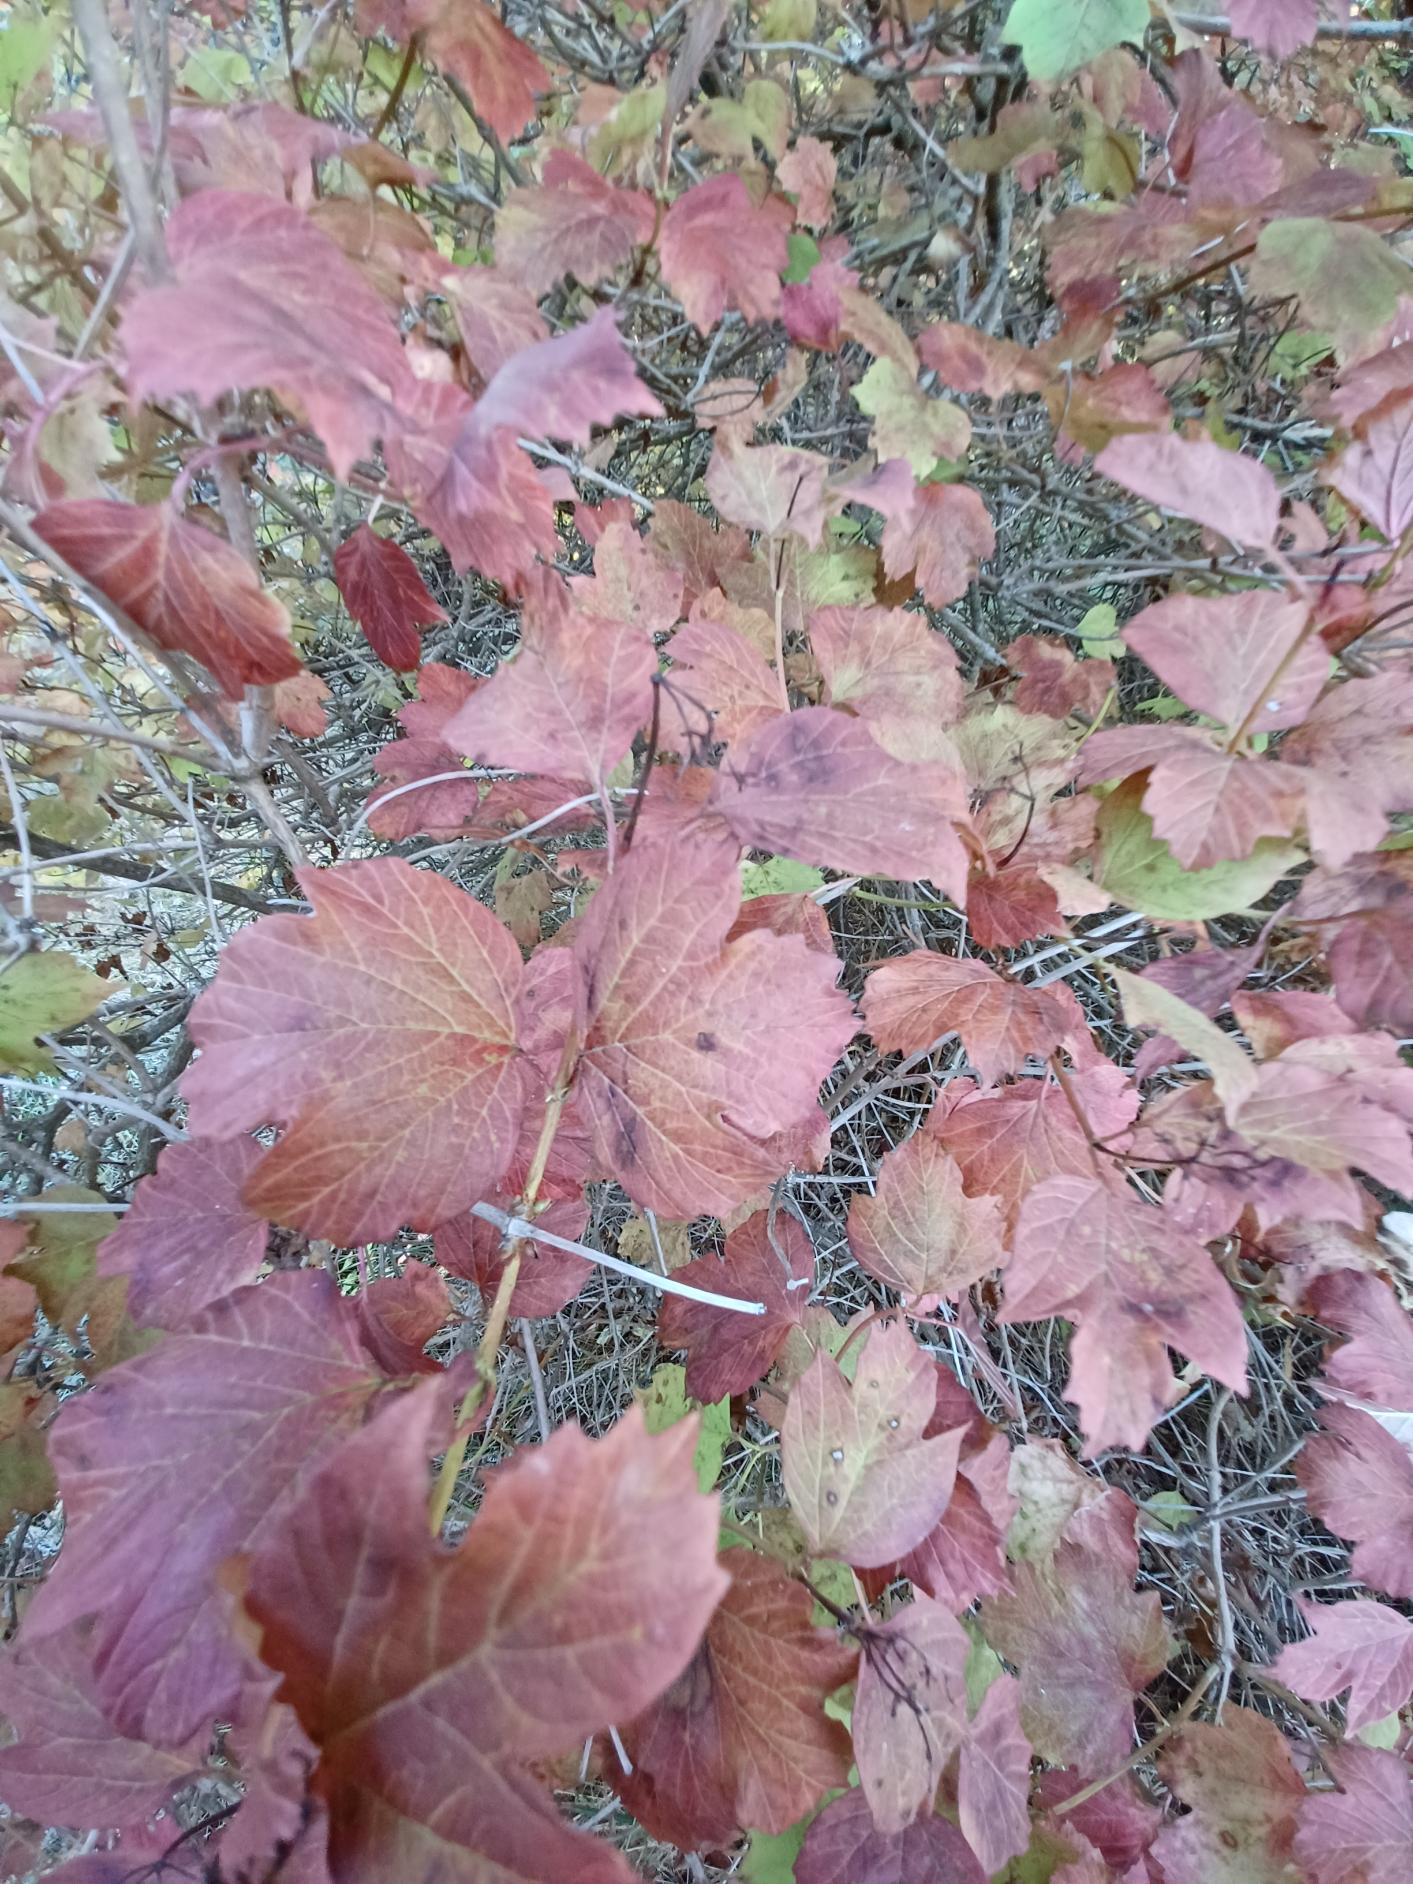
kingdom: Plantae
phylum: Tracheophyta
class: Magnoliopsida
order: Dipsacales
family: Viburnaceae
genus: Viburnum
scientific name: Viburnum opulus
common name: Kvalkved
